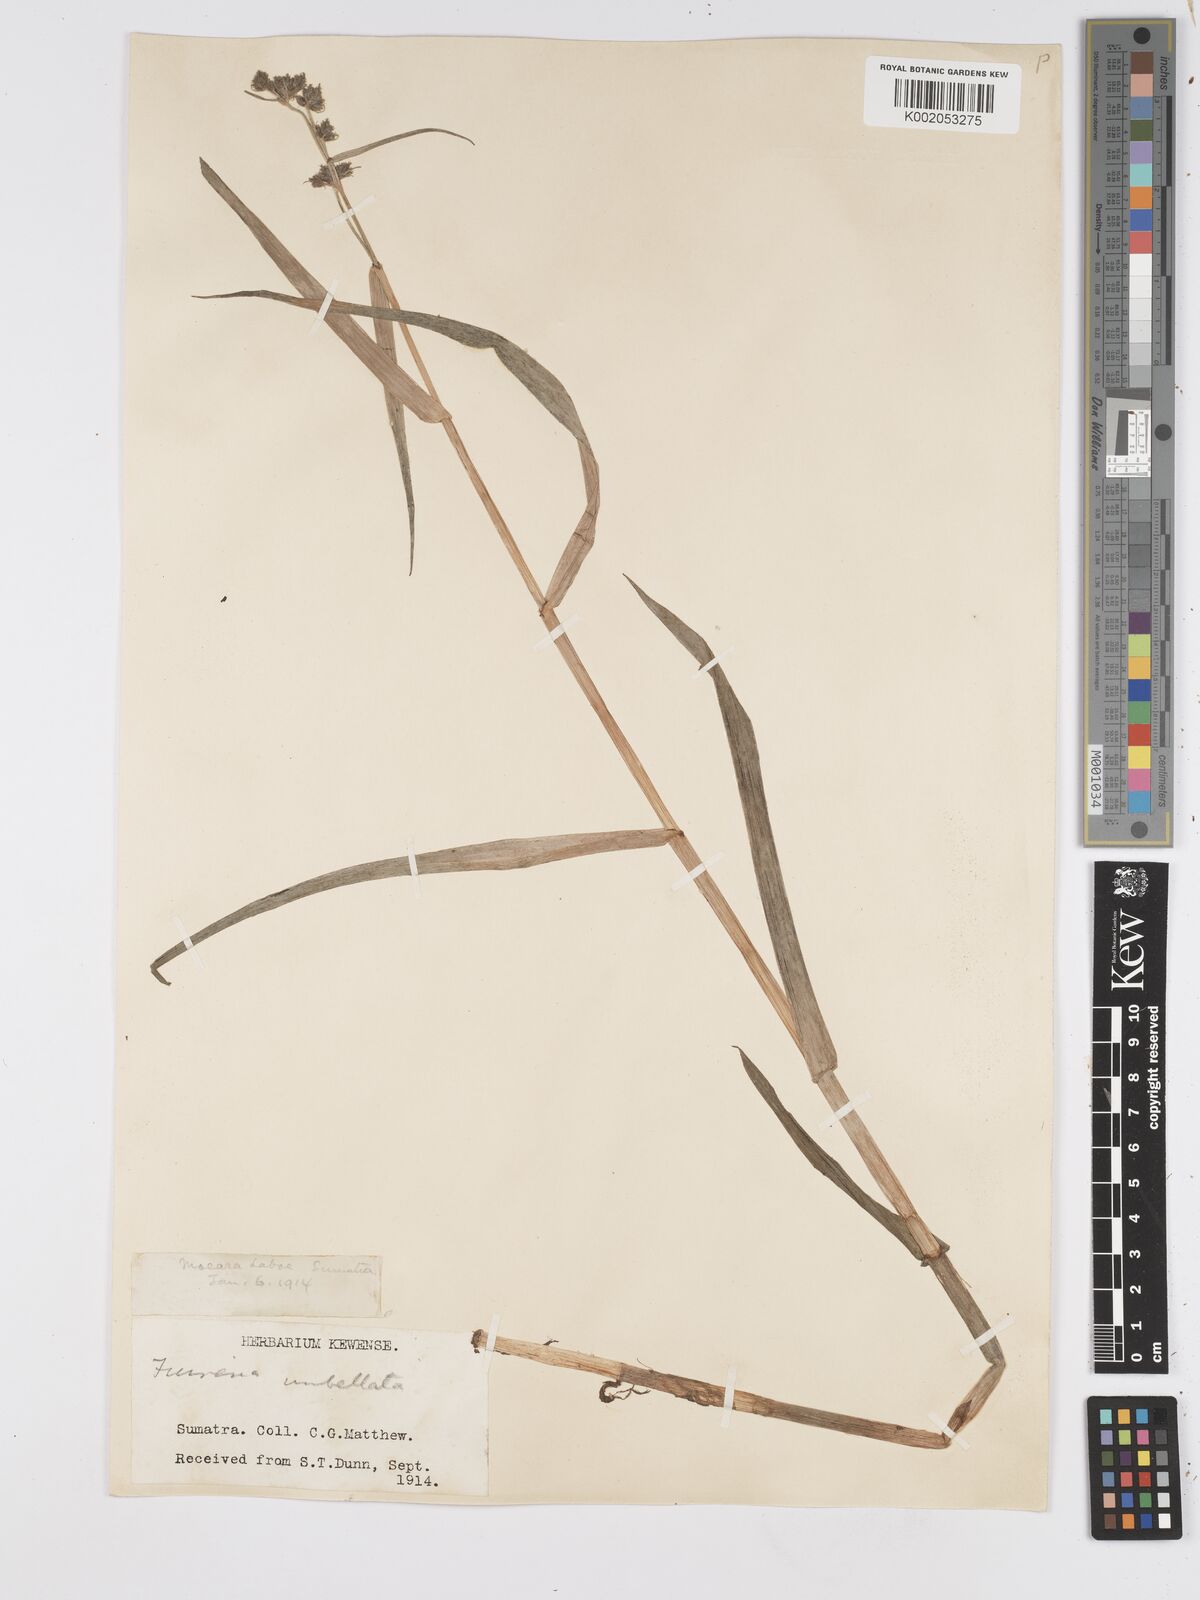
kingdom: Plantae
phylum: Tracheophyta
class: Liliopsida
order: Poales
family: Cyperaceae
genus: Fuirena
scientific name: Fuirena umbellata
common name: Yefen
